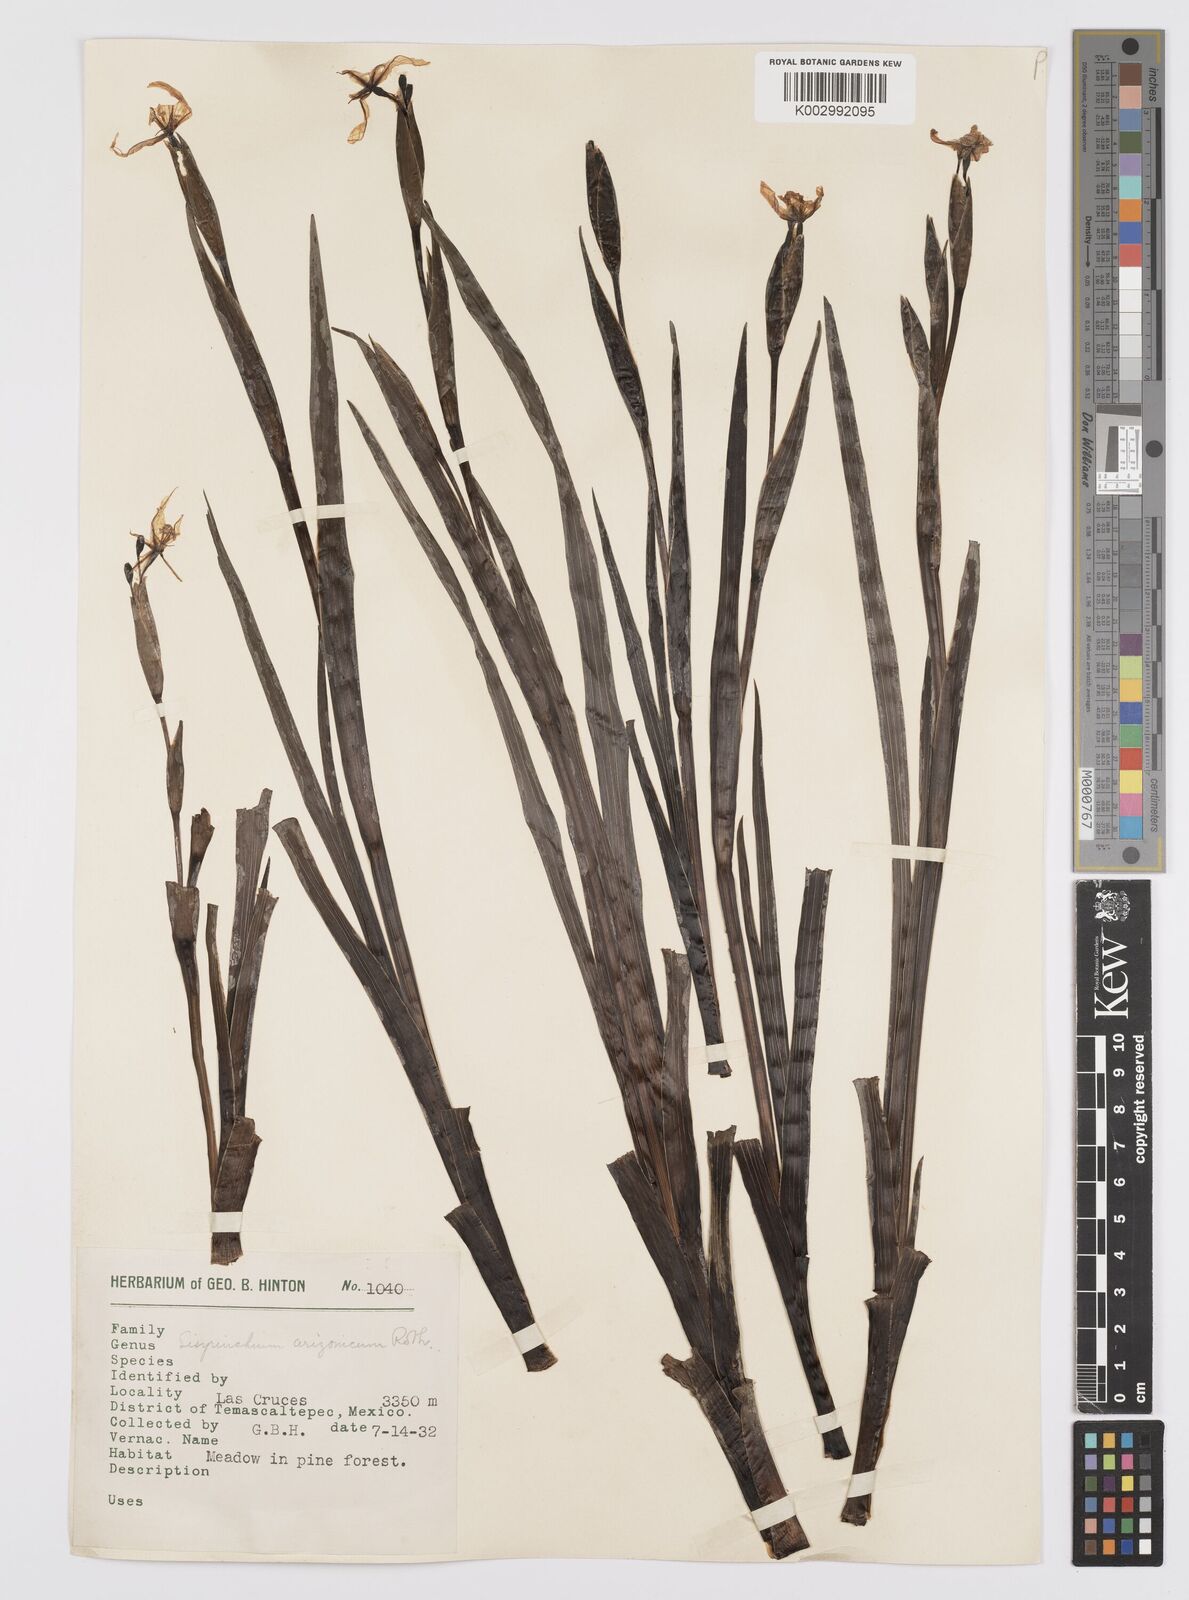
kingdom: Plantae
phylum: Tracheophyta
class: Liliopsida
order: Asparagales
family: Iridaceae
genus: Sisyrinchium
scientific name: Sisyrinchium arizonicum
